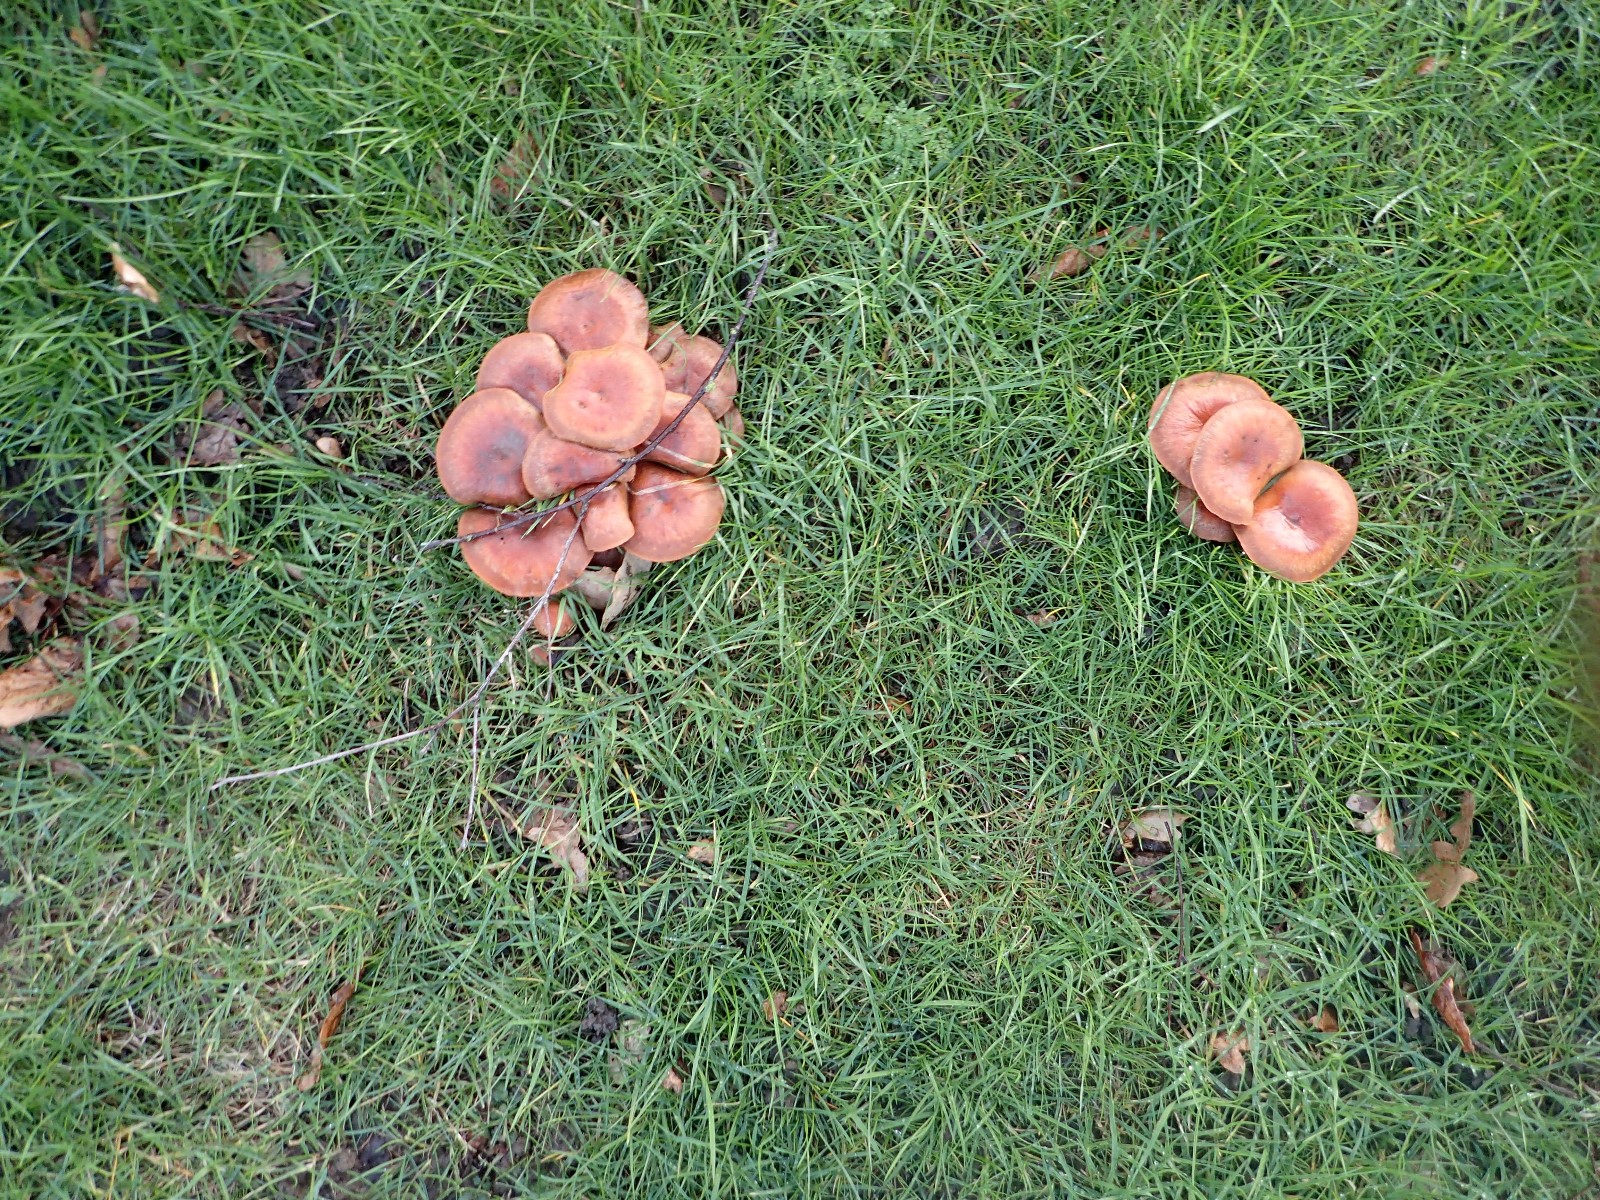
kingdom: Fungi
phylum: Basidiomycota
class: Agaricomycetes
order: Agaricales
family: Strophariaceae
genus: Hypholoma
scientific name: Hypholoma fasciculare
